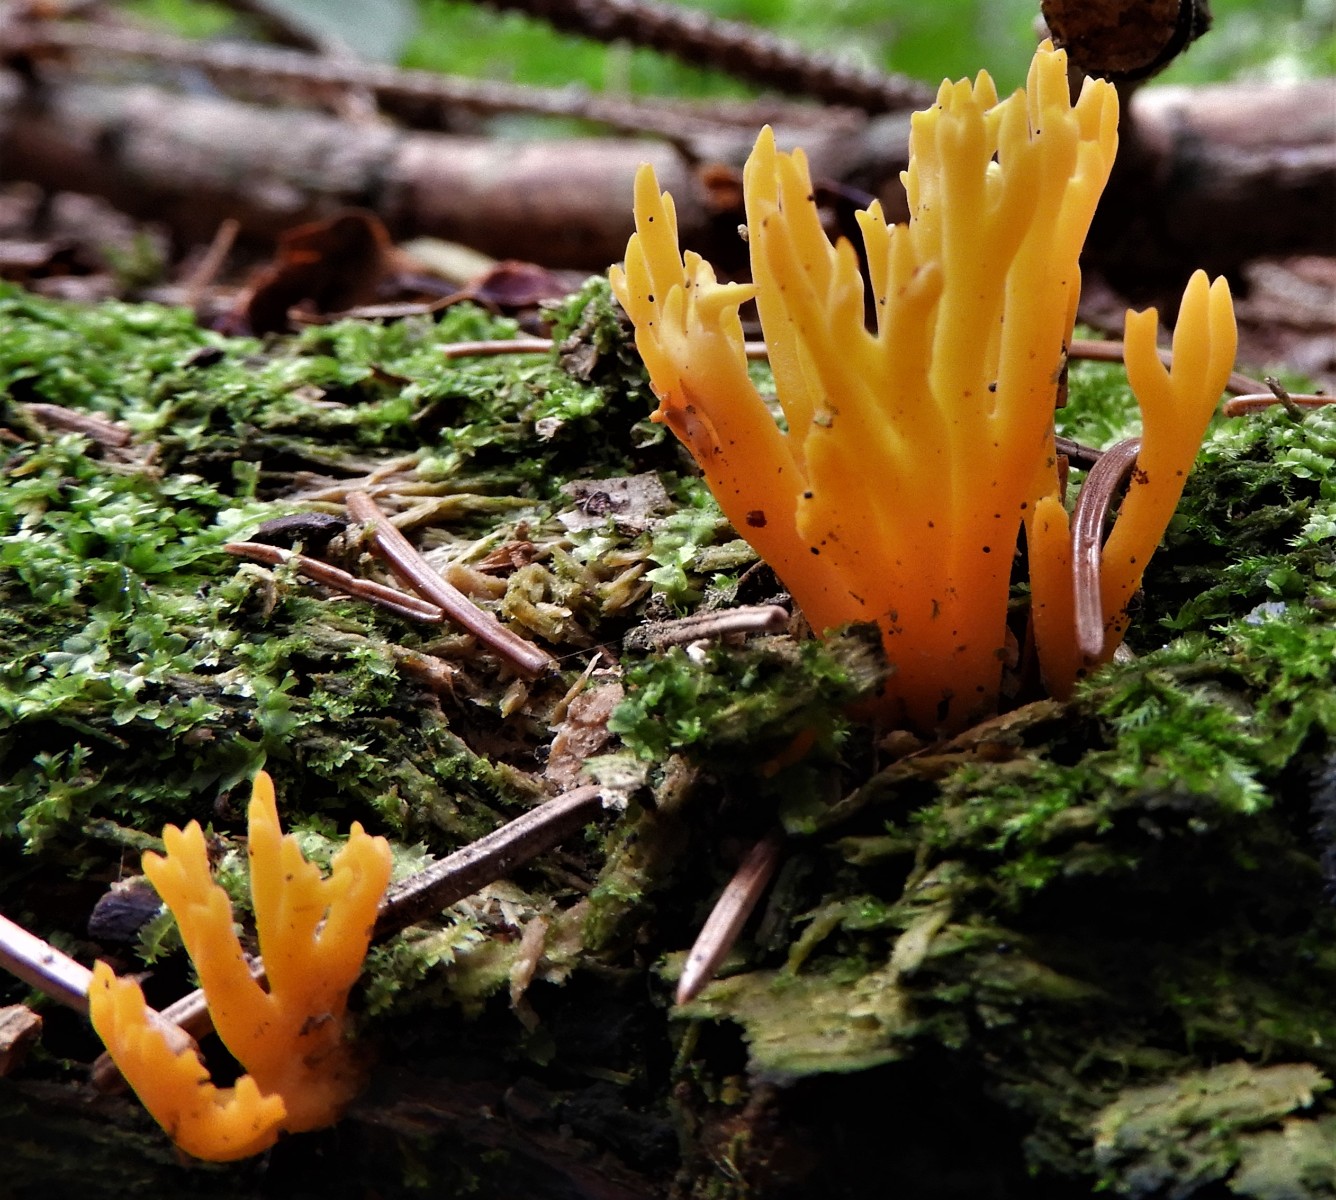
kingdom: Fungi
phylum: Basidiomycota
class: Dacrymycetes
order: Dacrymycetales
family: Dacrymycetaceae
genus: Calocera
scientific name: Calocera viscosa
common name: almindelig guldgaffel
